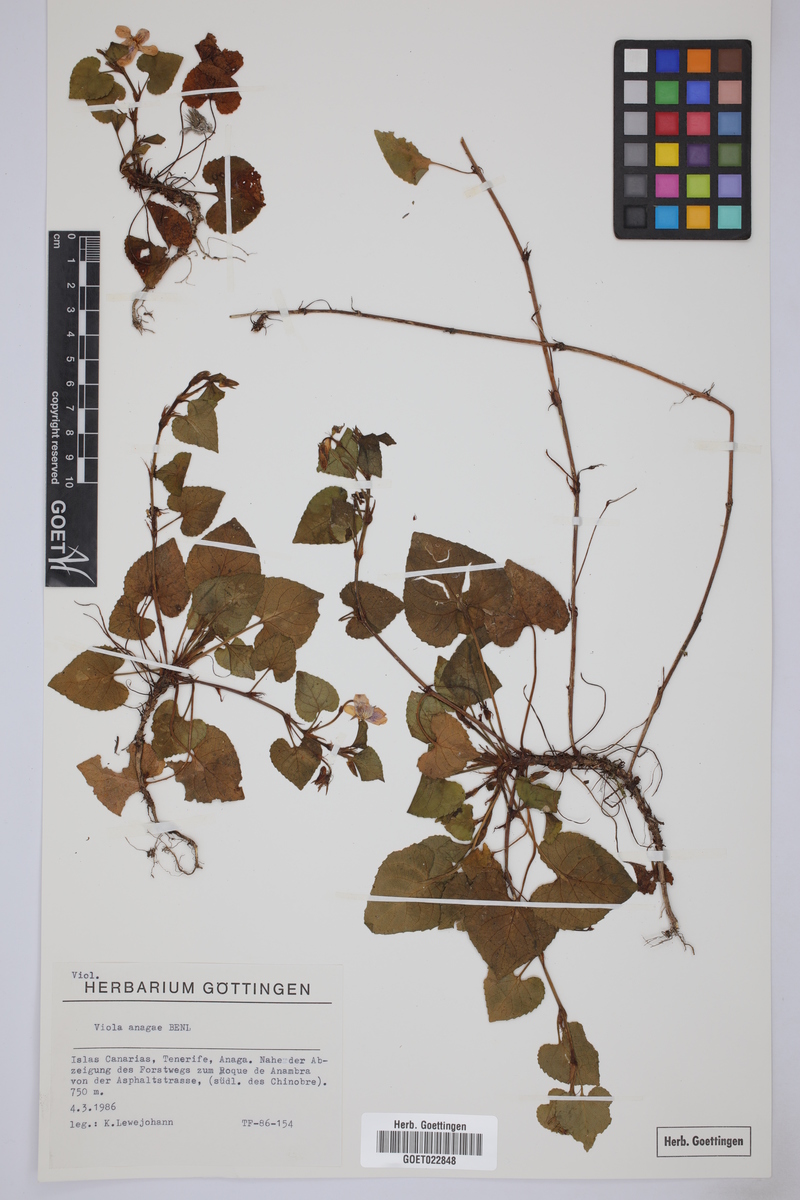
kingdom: Plantae
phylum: Tracheophyta
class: Magnoliopsida
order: Malpighiales
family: Violaceae
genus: Viola
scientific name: Viola anagae
